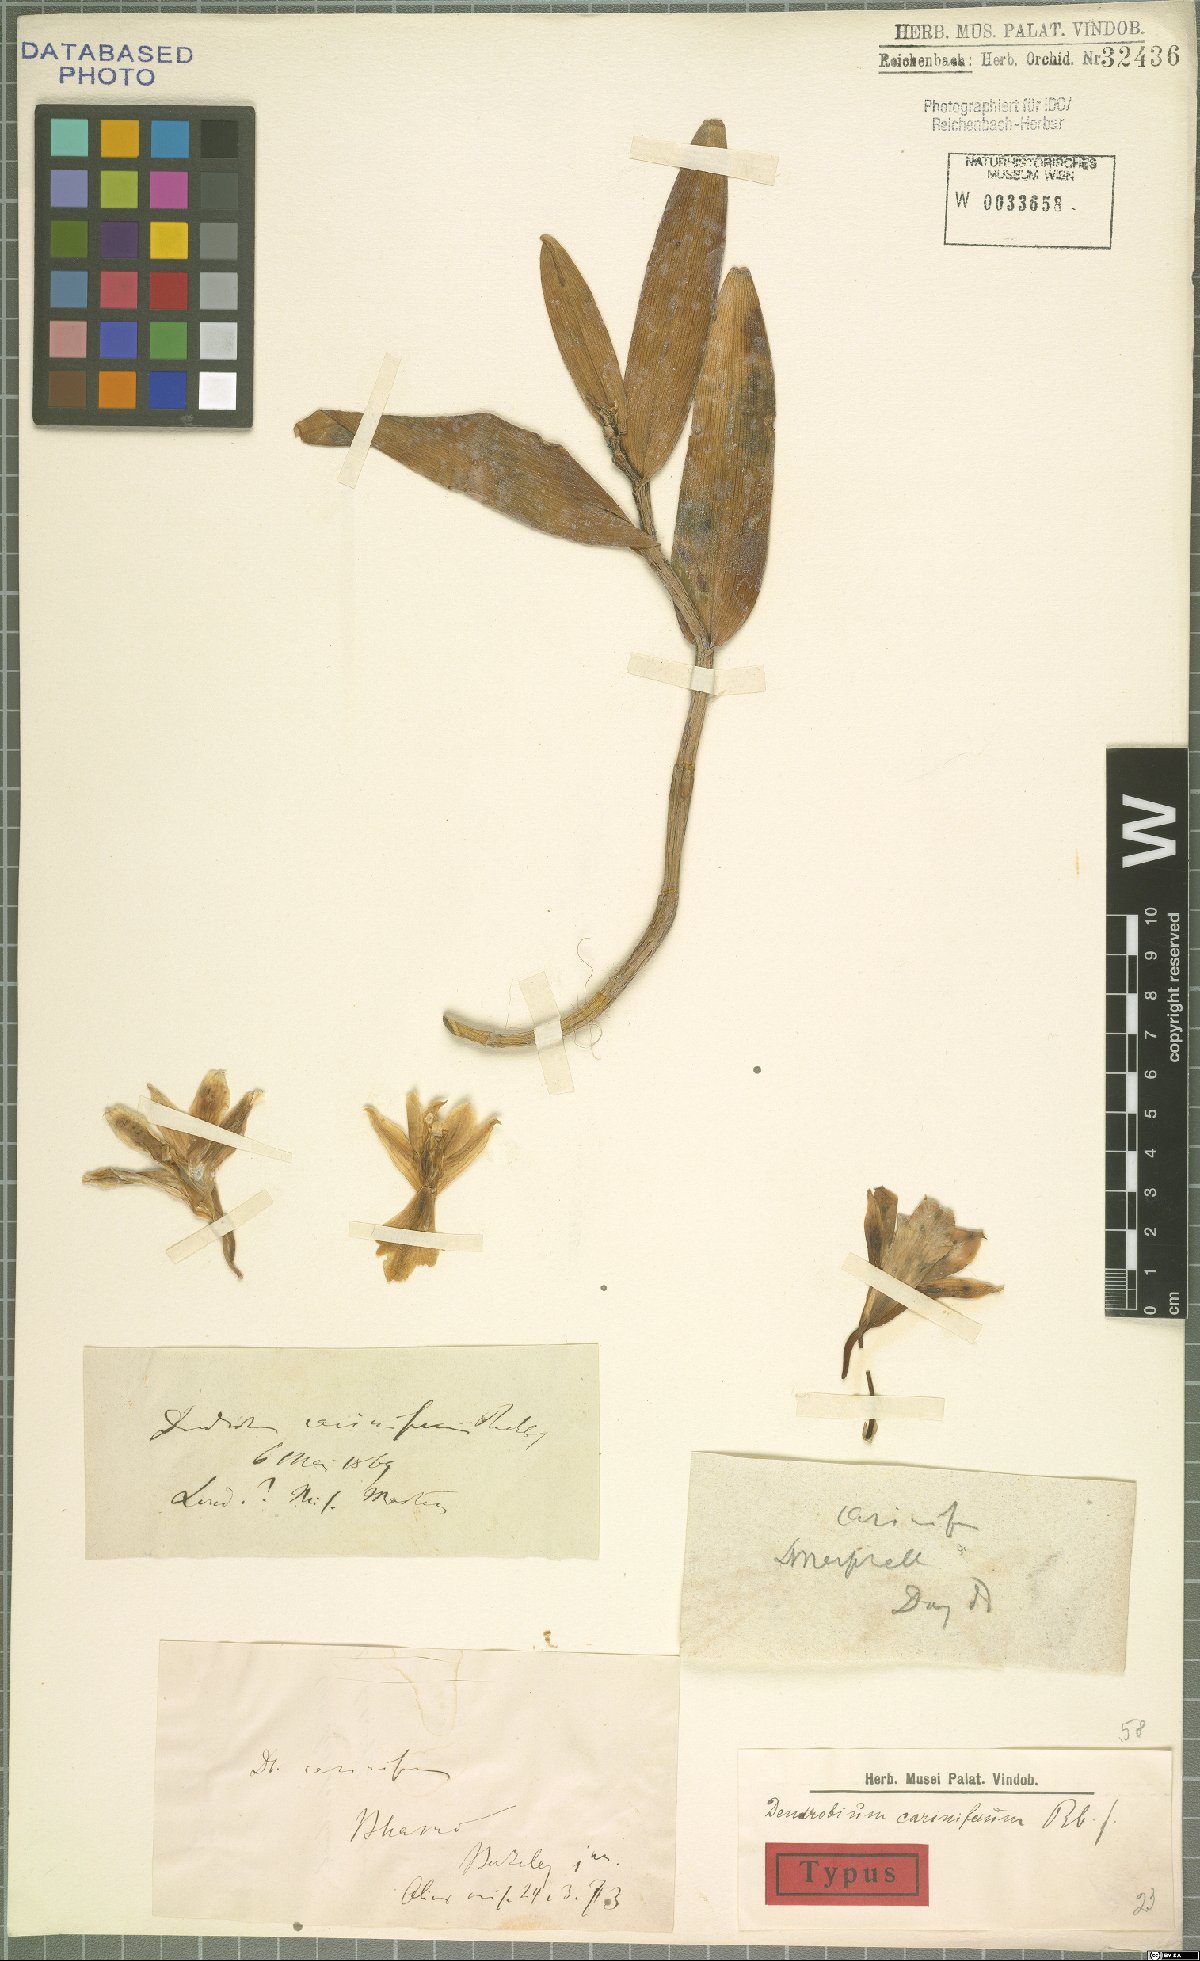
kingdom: Plantae
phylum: Tracheophyta
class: Liliopsida
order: Asparagales
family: Orchidaceae
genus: Dendrobium
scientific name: Dendrobium cariniferum
